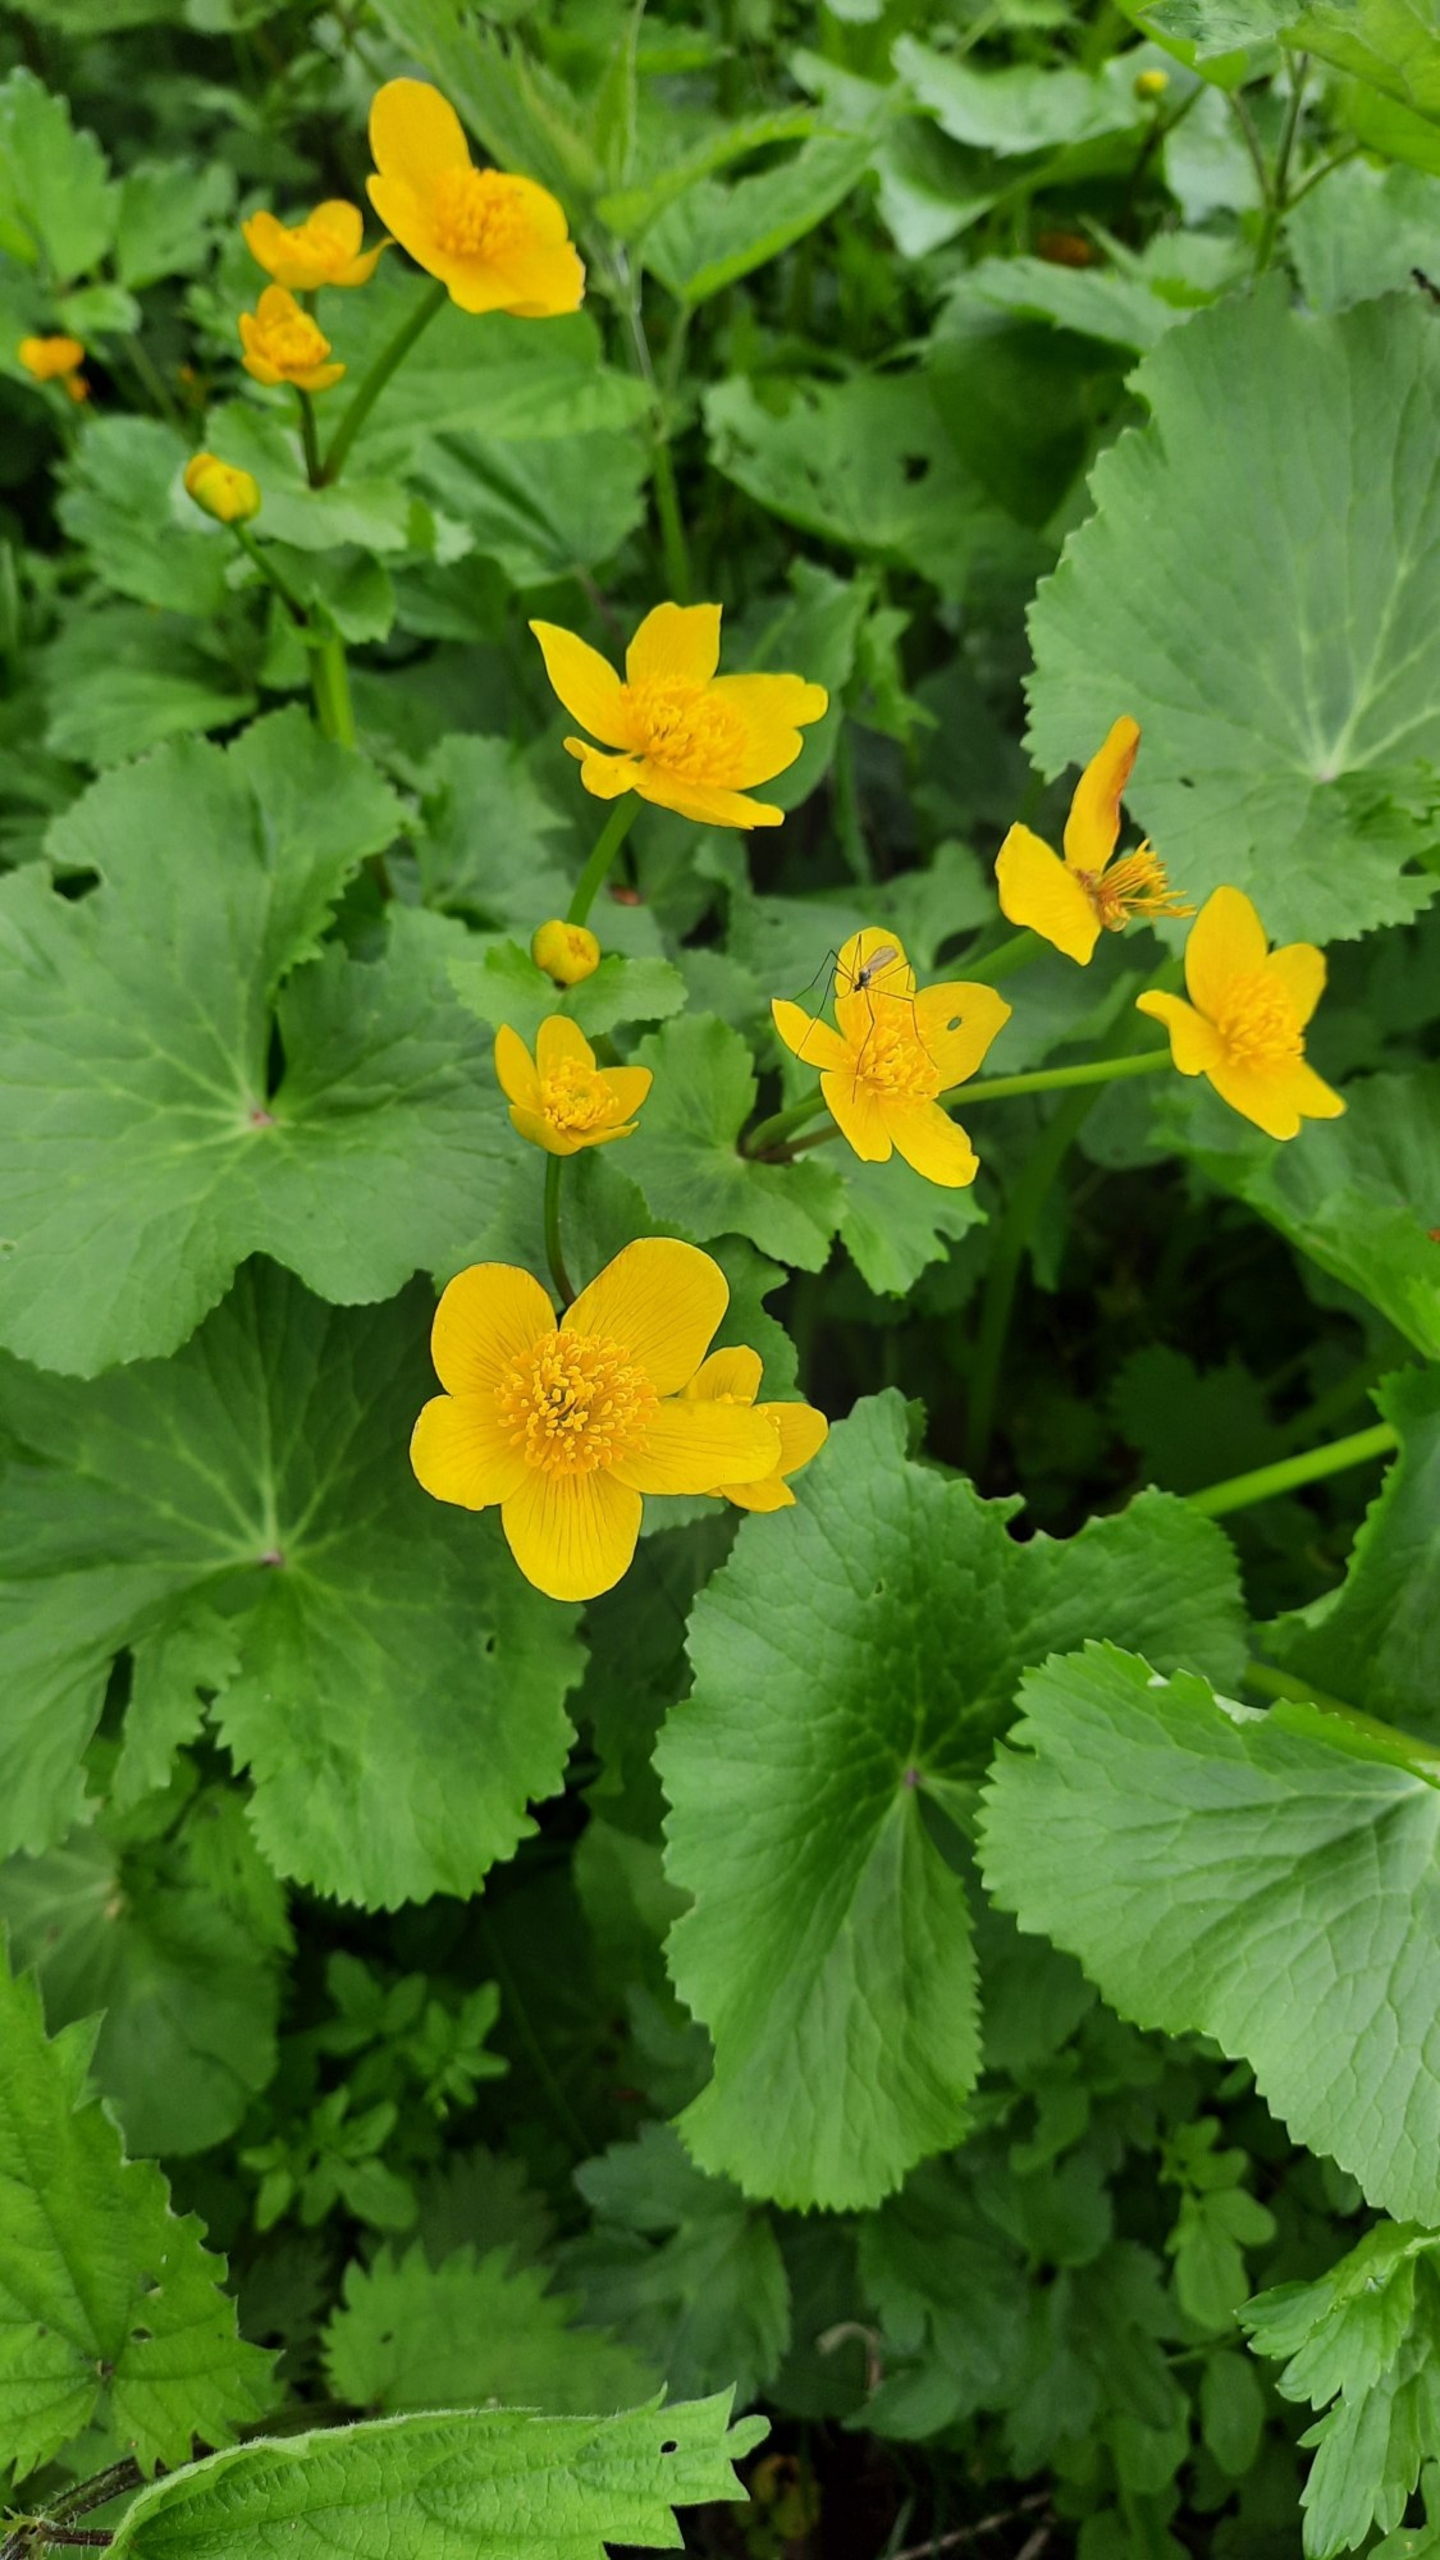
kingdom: Plantae
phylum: Tracheophyta
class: Magnoliopsida
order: Ranunculales
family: Ranunculaceae
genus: Caltha
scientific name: Caltha palustris
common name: Eng-kabbeleje
